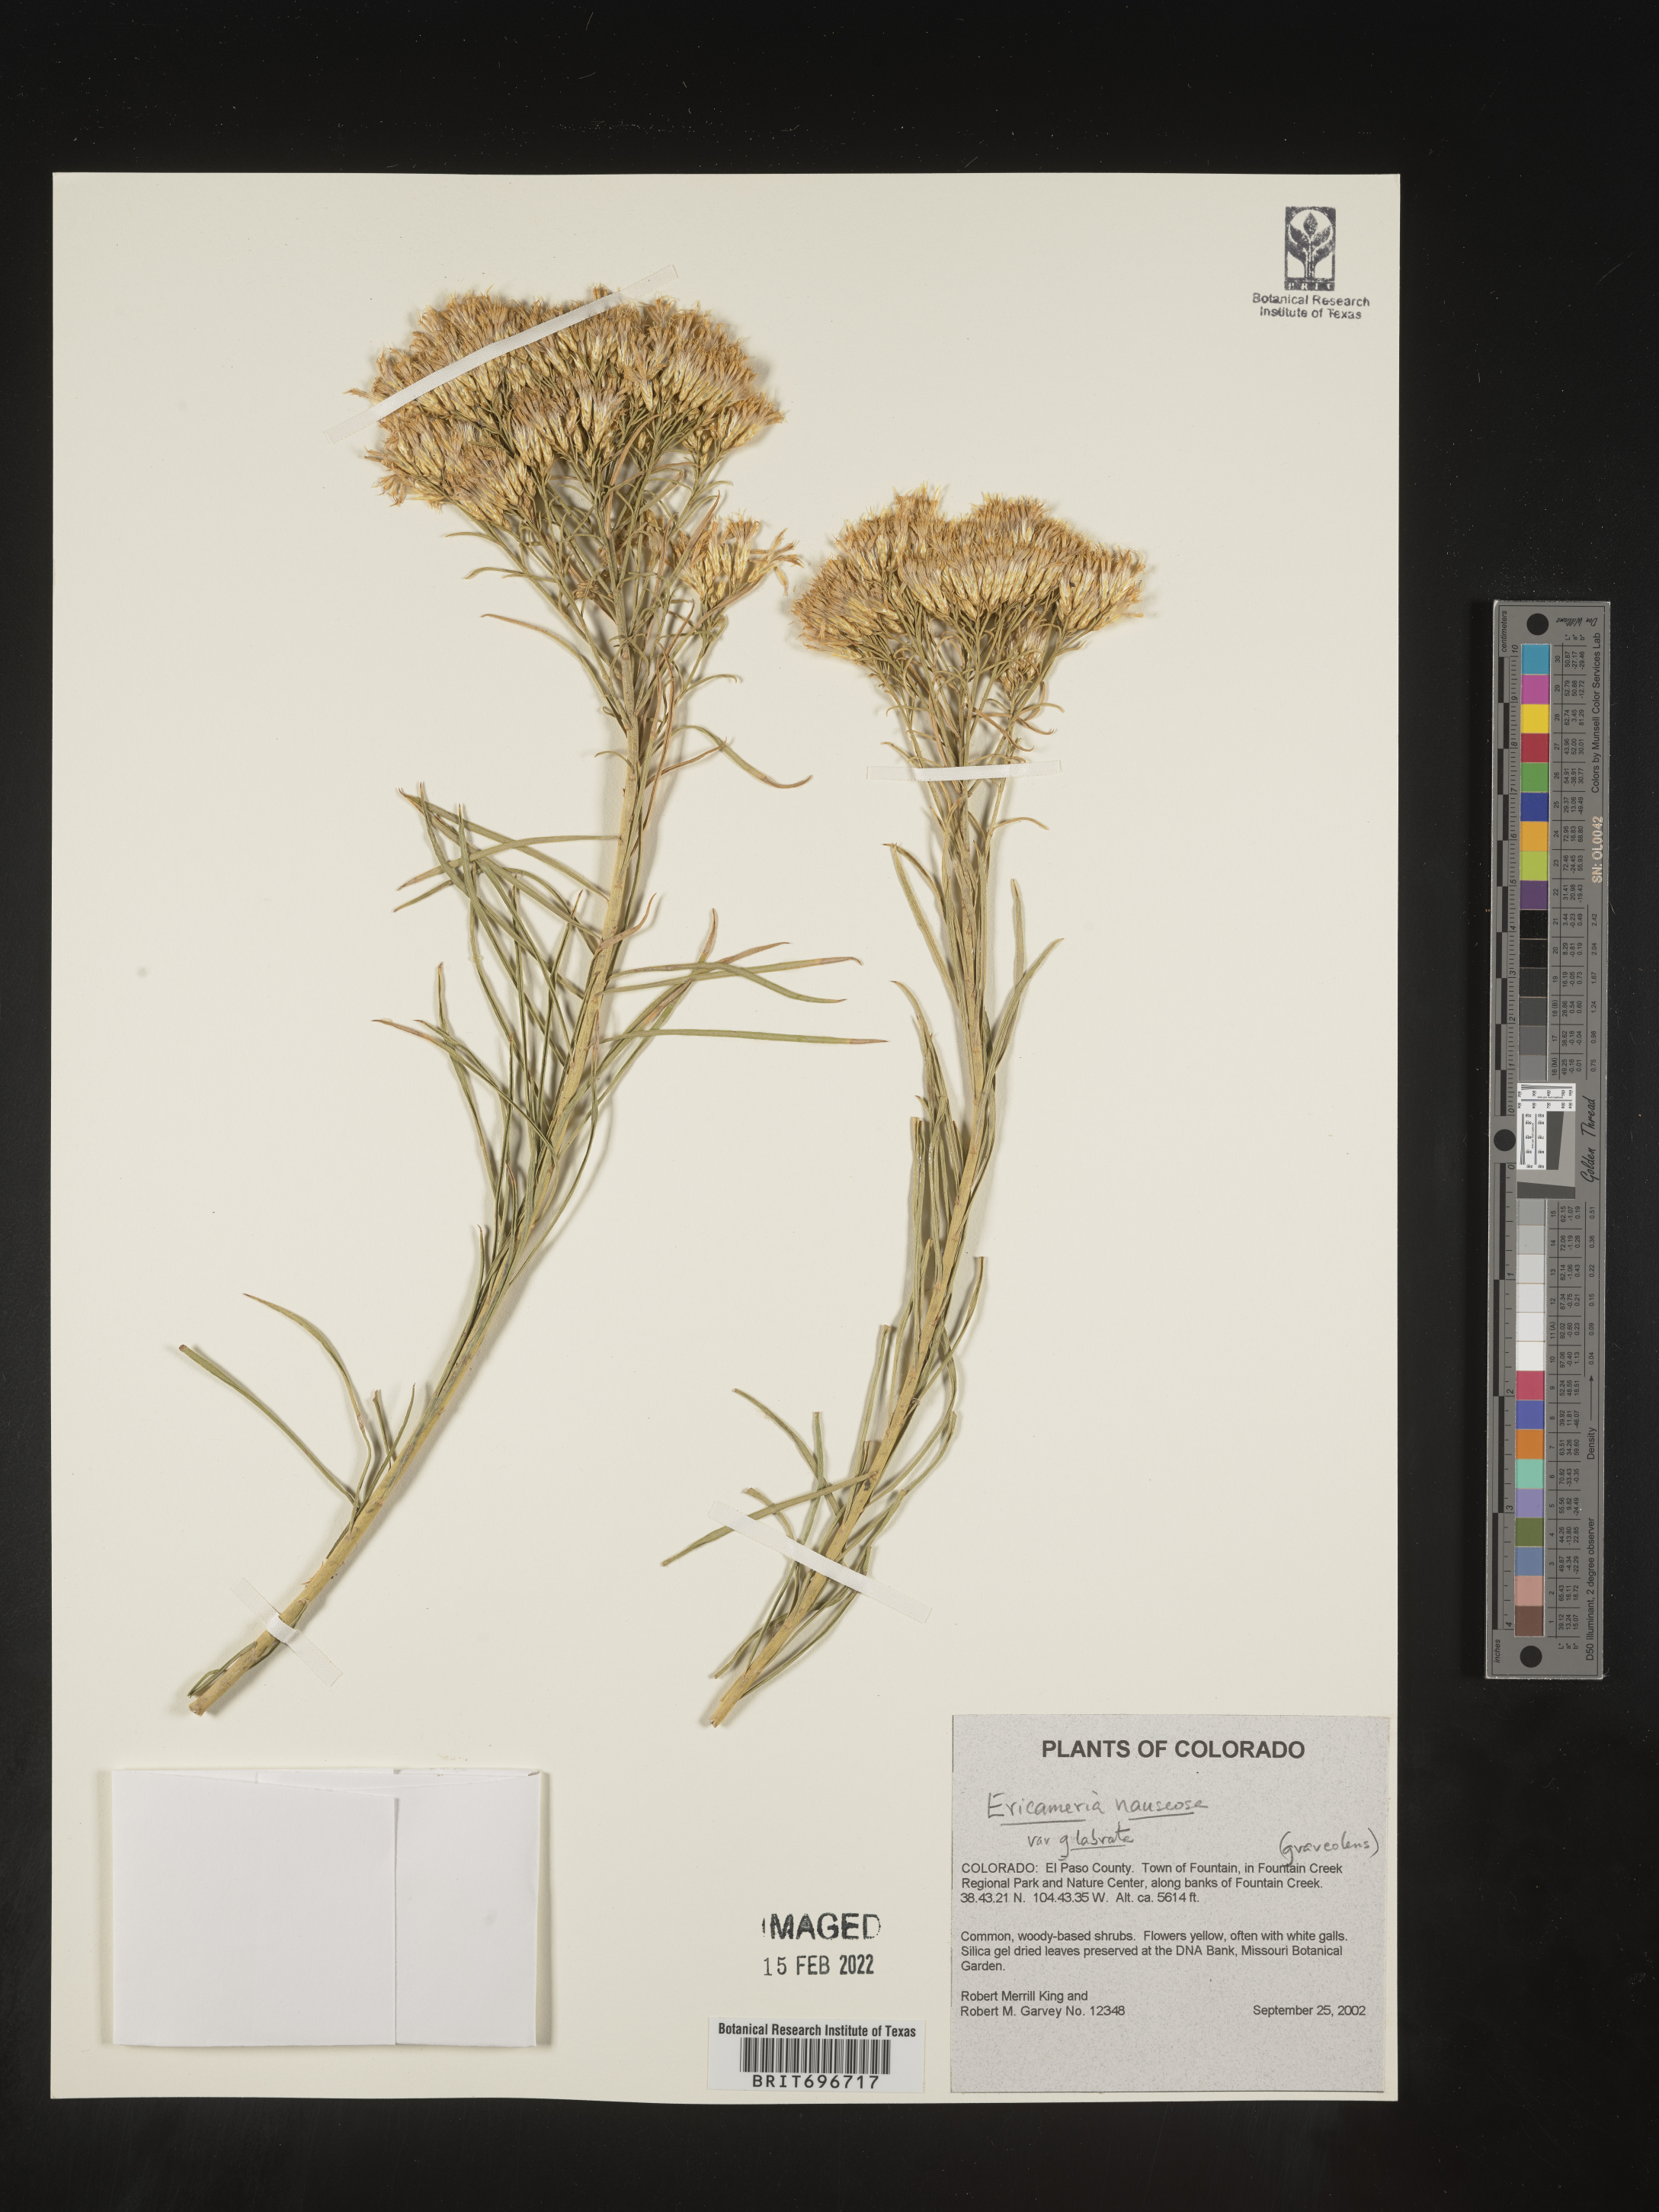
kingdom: Plantae
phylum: Tracheophyta
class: Magnoliopsida
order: Asterales
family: Asteraceae
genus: Ericameria
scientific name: Ericameria nauseosa
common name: Rubber rabbitbrush
